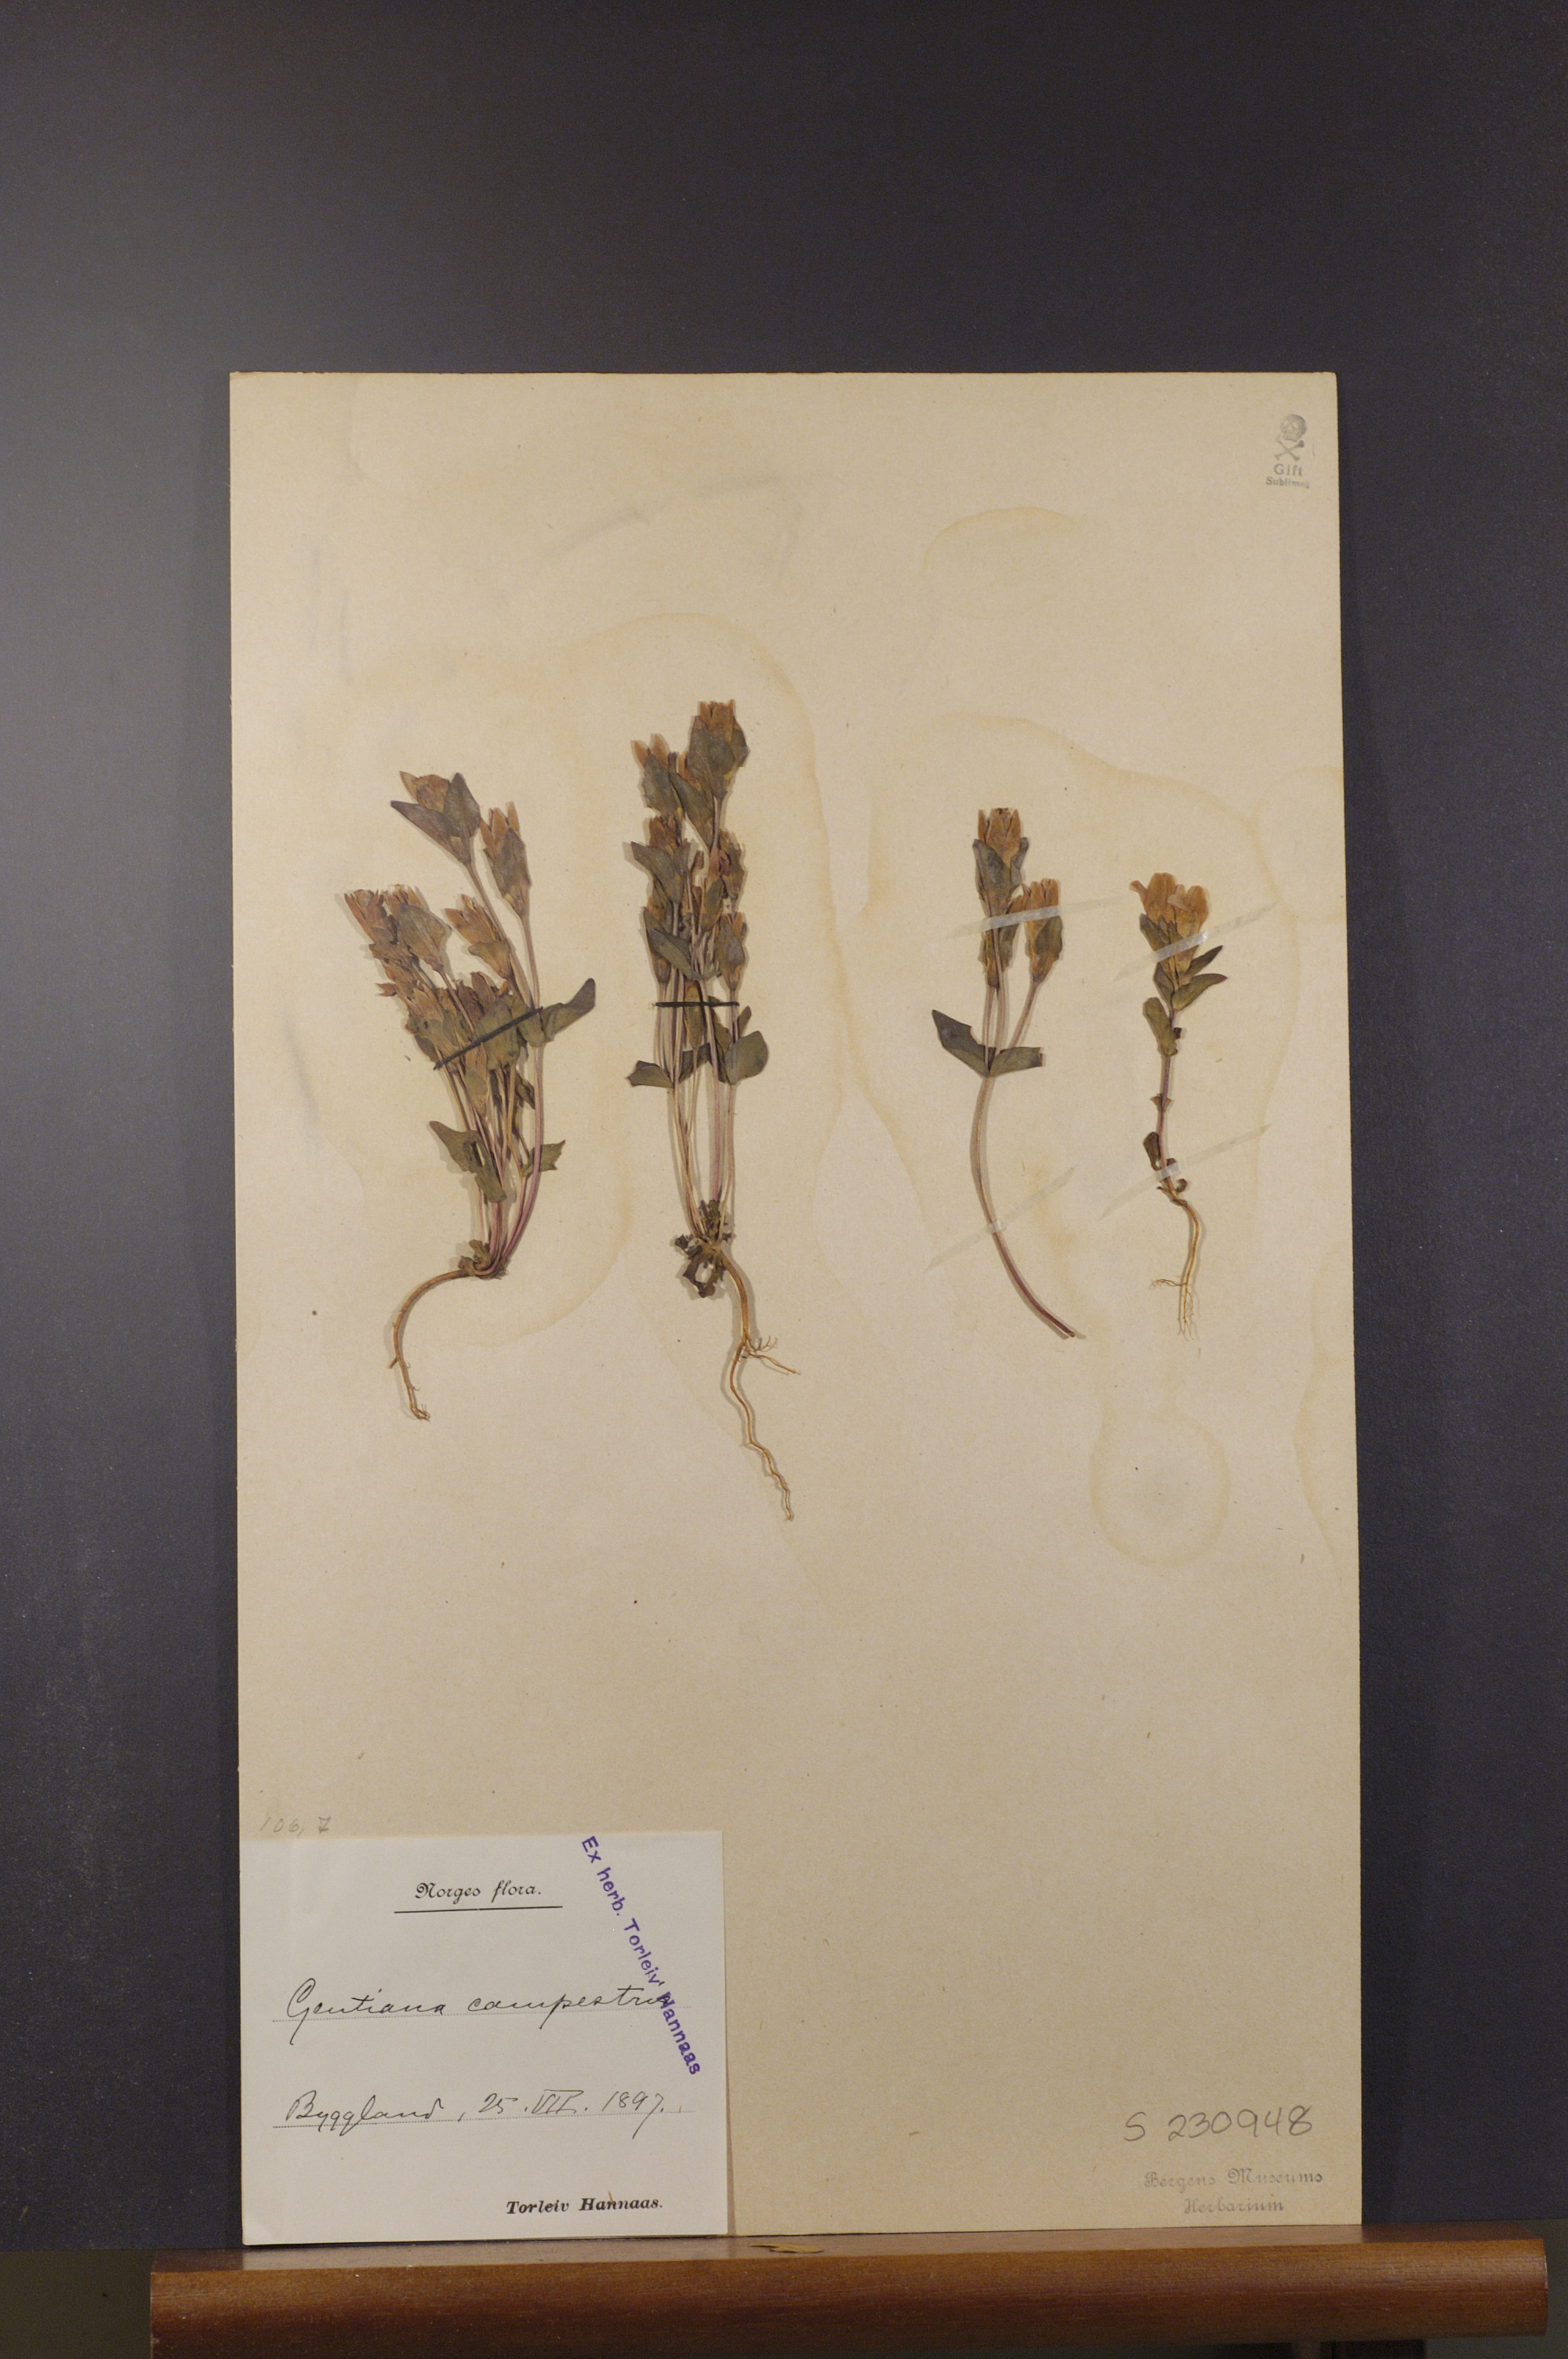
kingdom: Plantae
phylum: Tracheophyta
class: Magnoliopsida
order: Gentianales
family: Gentianaceae
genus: Gentianella
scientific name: Gentianella campestris
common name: Field gentian
